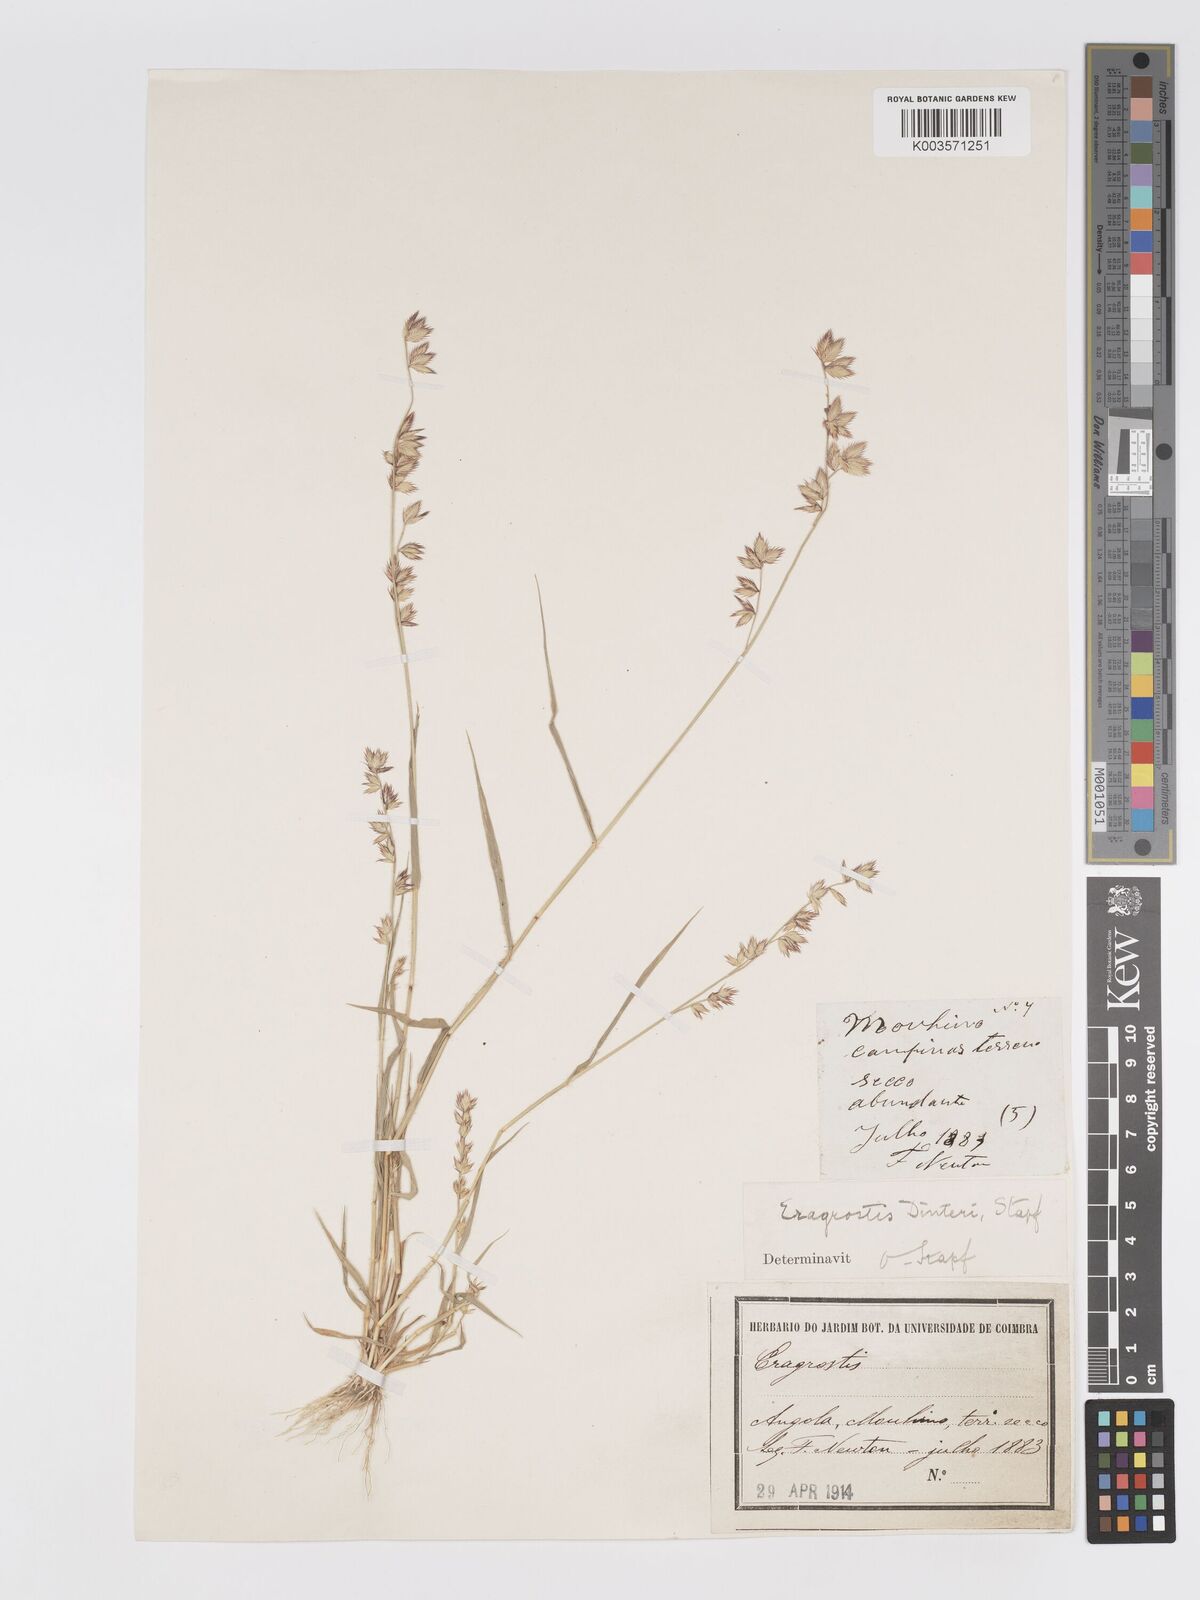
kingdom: Plantae
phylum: Tracheophyta
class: Liliopsida
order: Poales
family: Poaceae
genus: Eragrostis
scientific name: Eragrostis variegata
